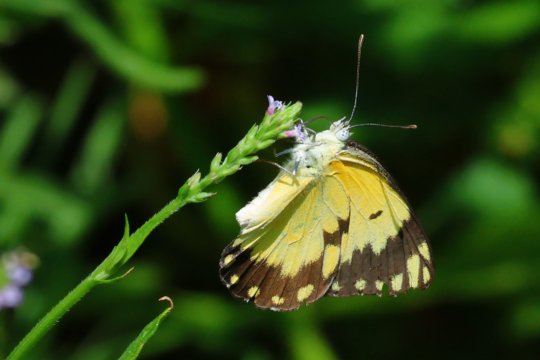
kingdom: Animalia
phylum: Arthropoda
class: Insecta
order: Lepidoptera
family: Pieridae
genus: Belenois
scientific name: Belenois creona
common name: African Caper
